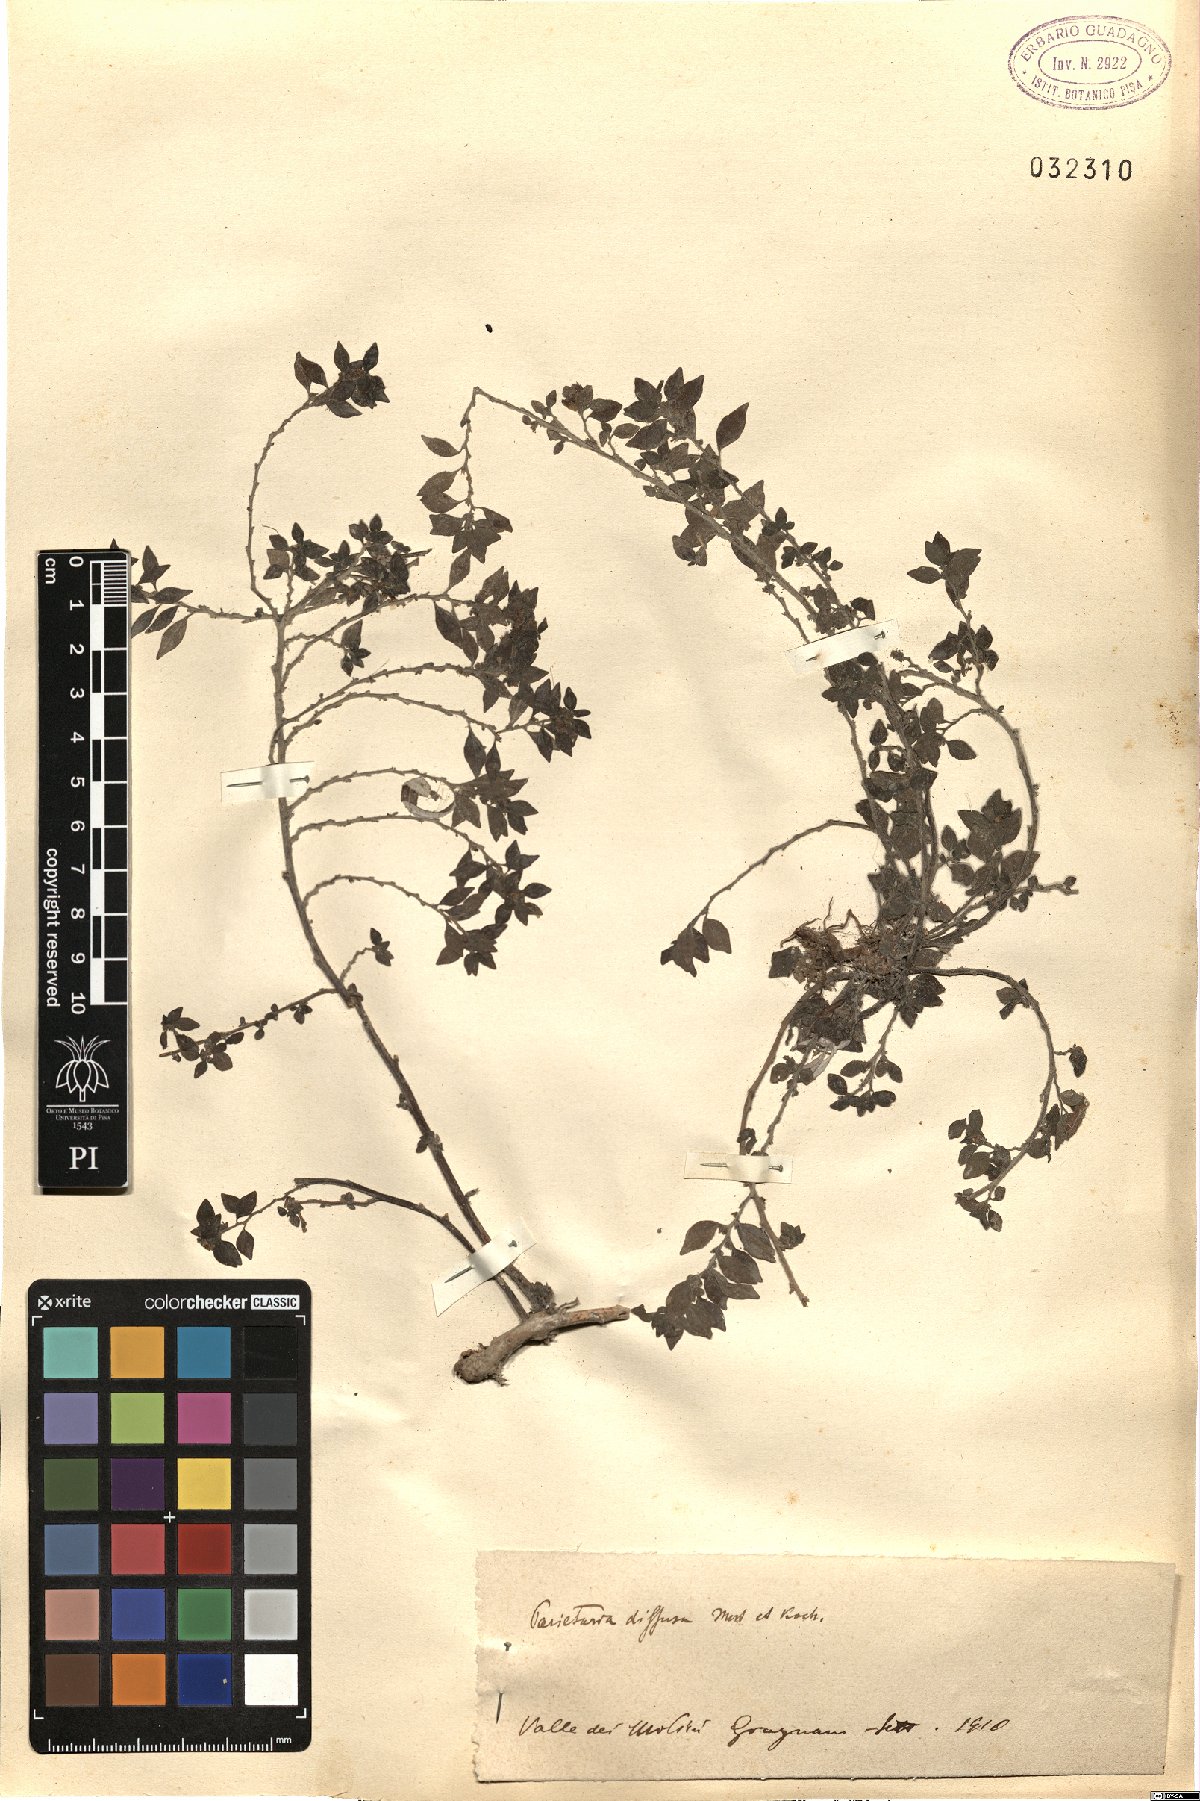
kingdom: Plantae
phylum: Tracheophyta
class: Magnoliopsida
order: Rosales
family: Urticaceae
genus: Parietaria
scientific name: Parietaria judaica
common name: Pellitory-of-the-wall
